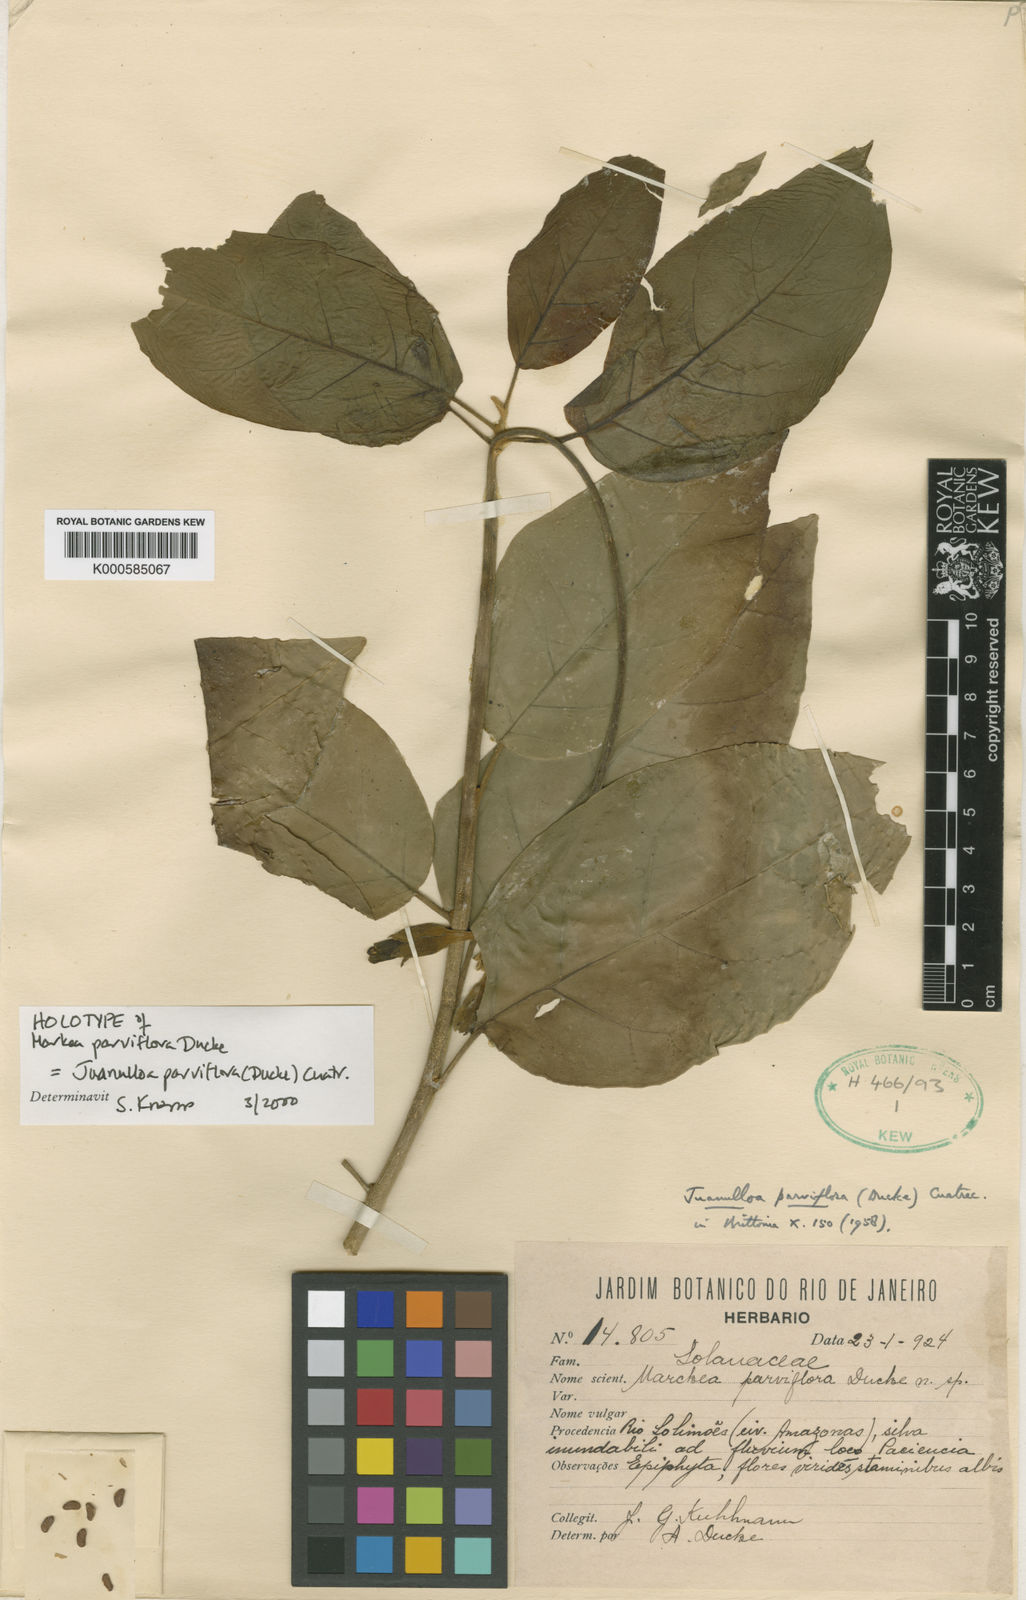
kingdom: Plantae
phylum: Tracheophyta
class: Magnoliopsida
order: Solanales
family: Solanaceae
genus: Juanulloa
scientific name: Juanulloa parviflora
